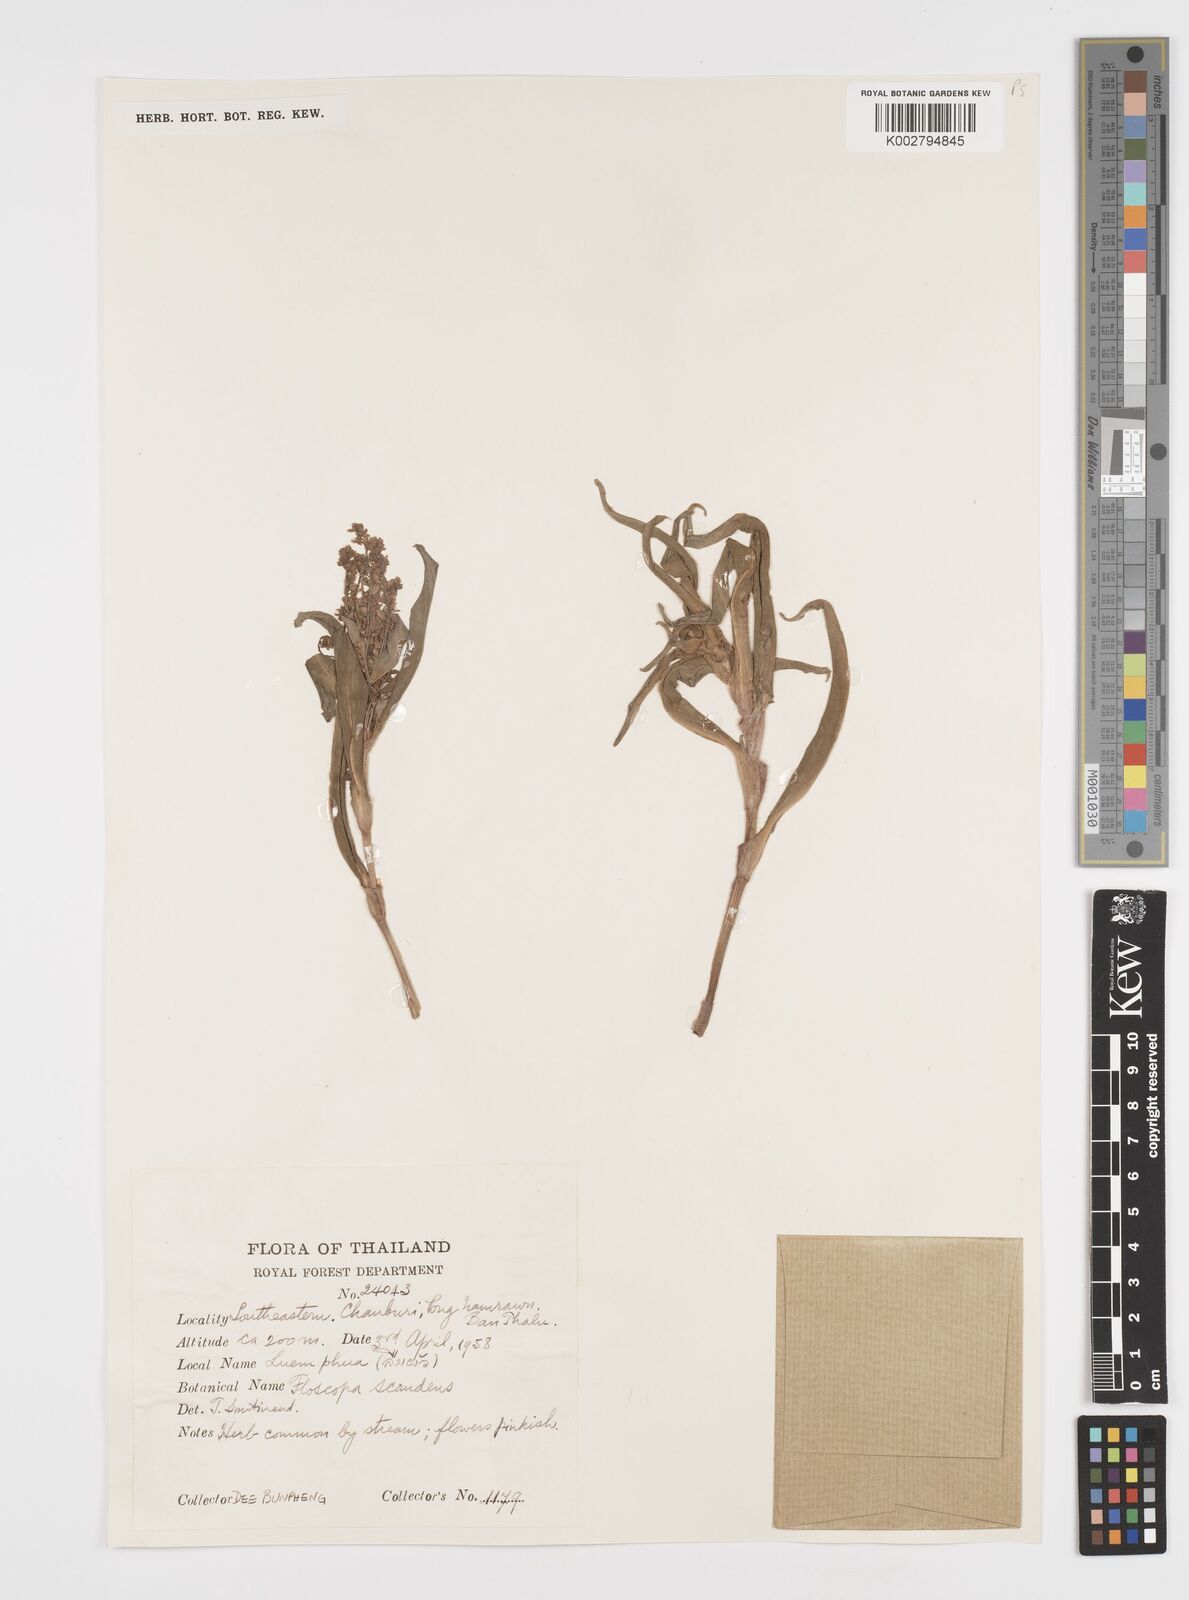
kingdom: Plantae
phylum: Tracheophyta
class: Liliopsida
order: Commelinales
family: Commelinaceae
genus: Floscopa
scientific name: Floscopa scandens
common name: Climbing flower cup
